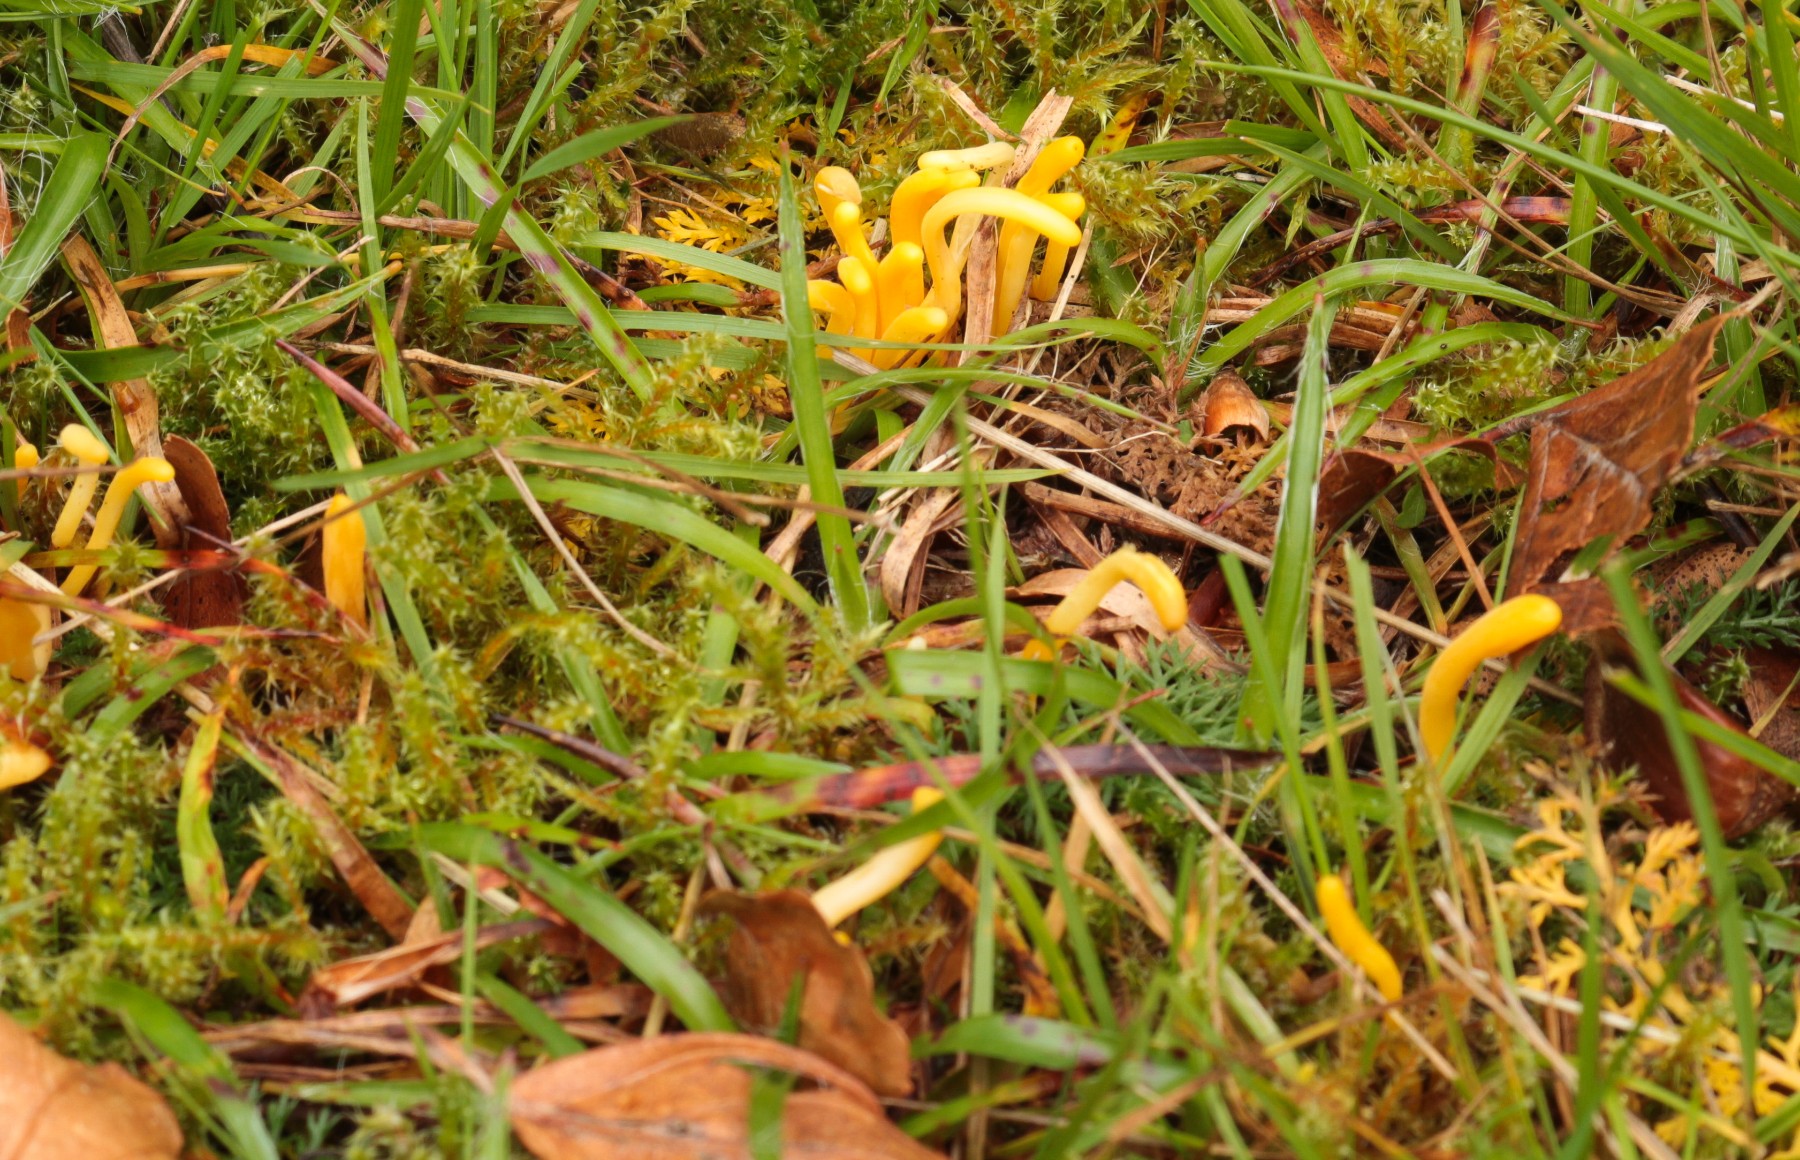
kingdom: Fungi
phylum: Basidiomycota
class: Agaricomycetes
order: Agaricales
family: Clavariaceae
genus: Clavulinopsis
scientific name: Clavulinopsis
